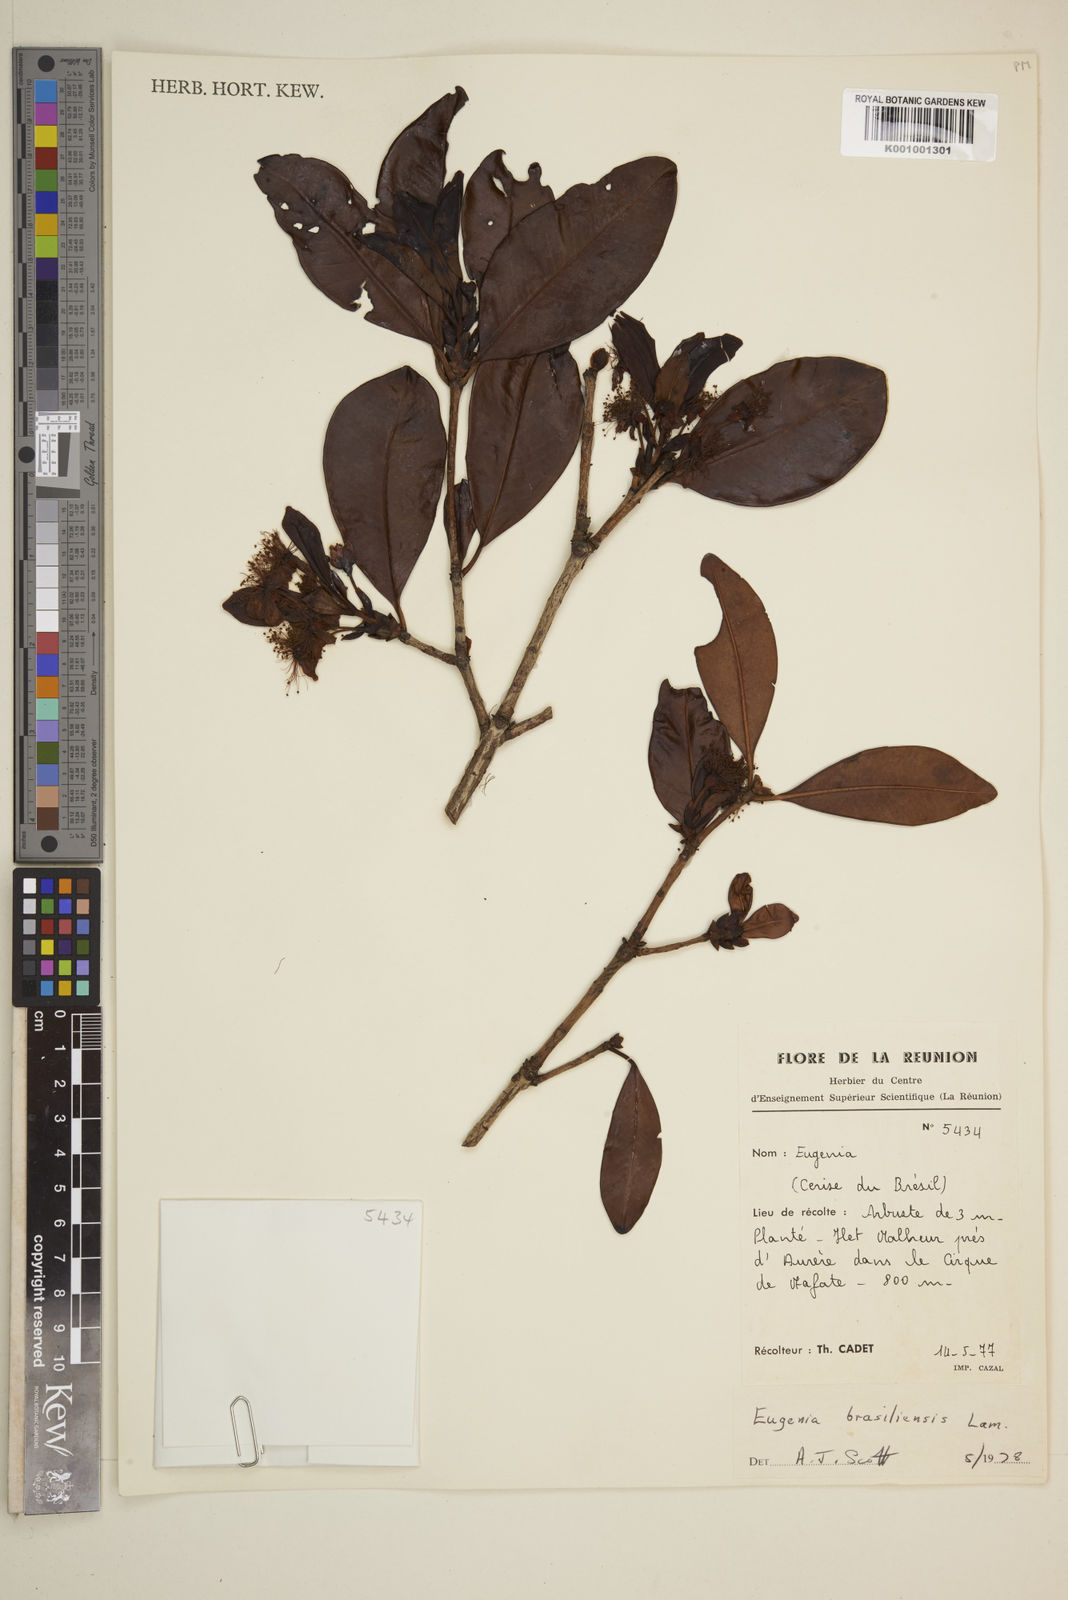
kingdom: Plantae
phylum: Tracheophyta
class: Magnoliopsida
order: Myrtales
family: Myrtaceae
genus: Eugenia
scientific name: Eugenia brasiliensis
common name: Grumichama
